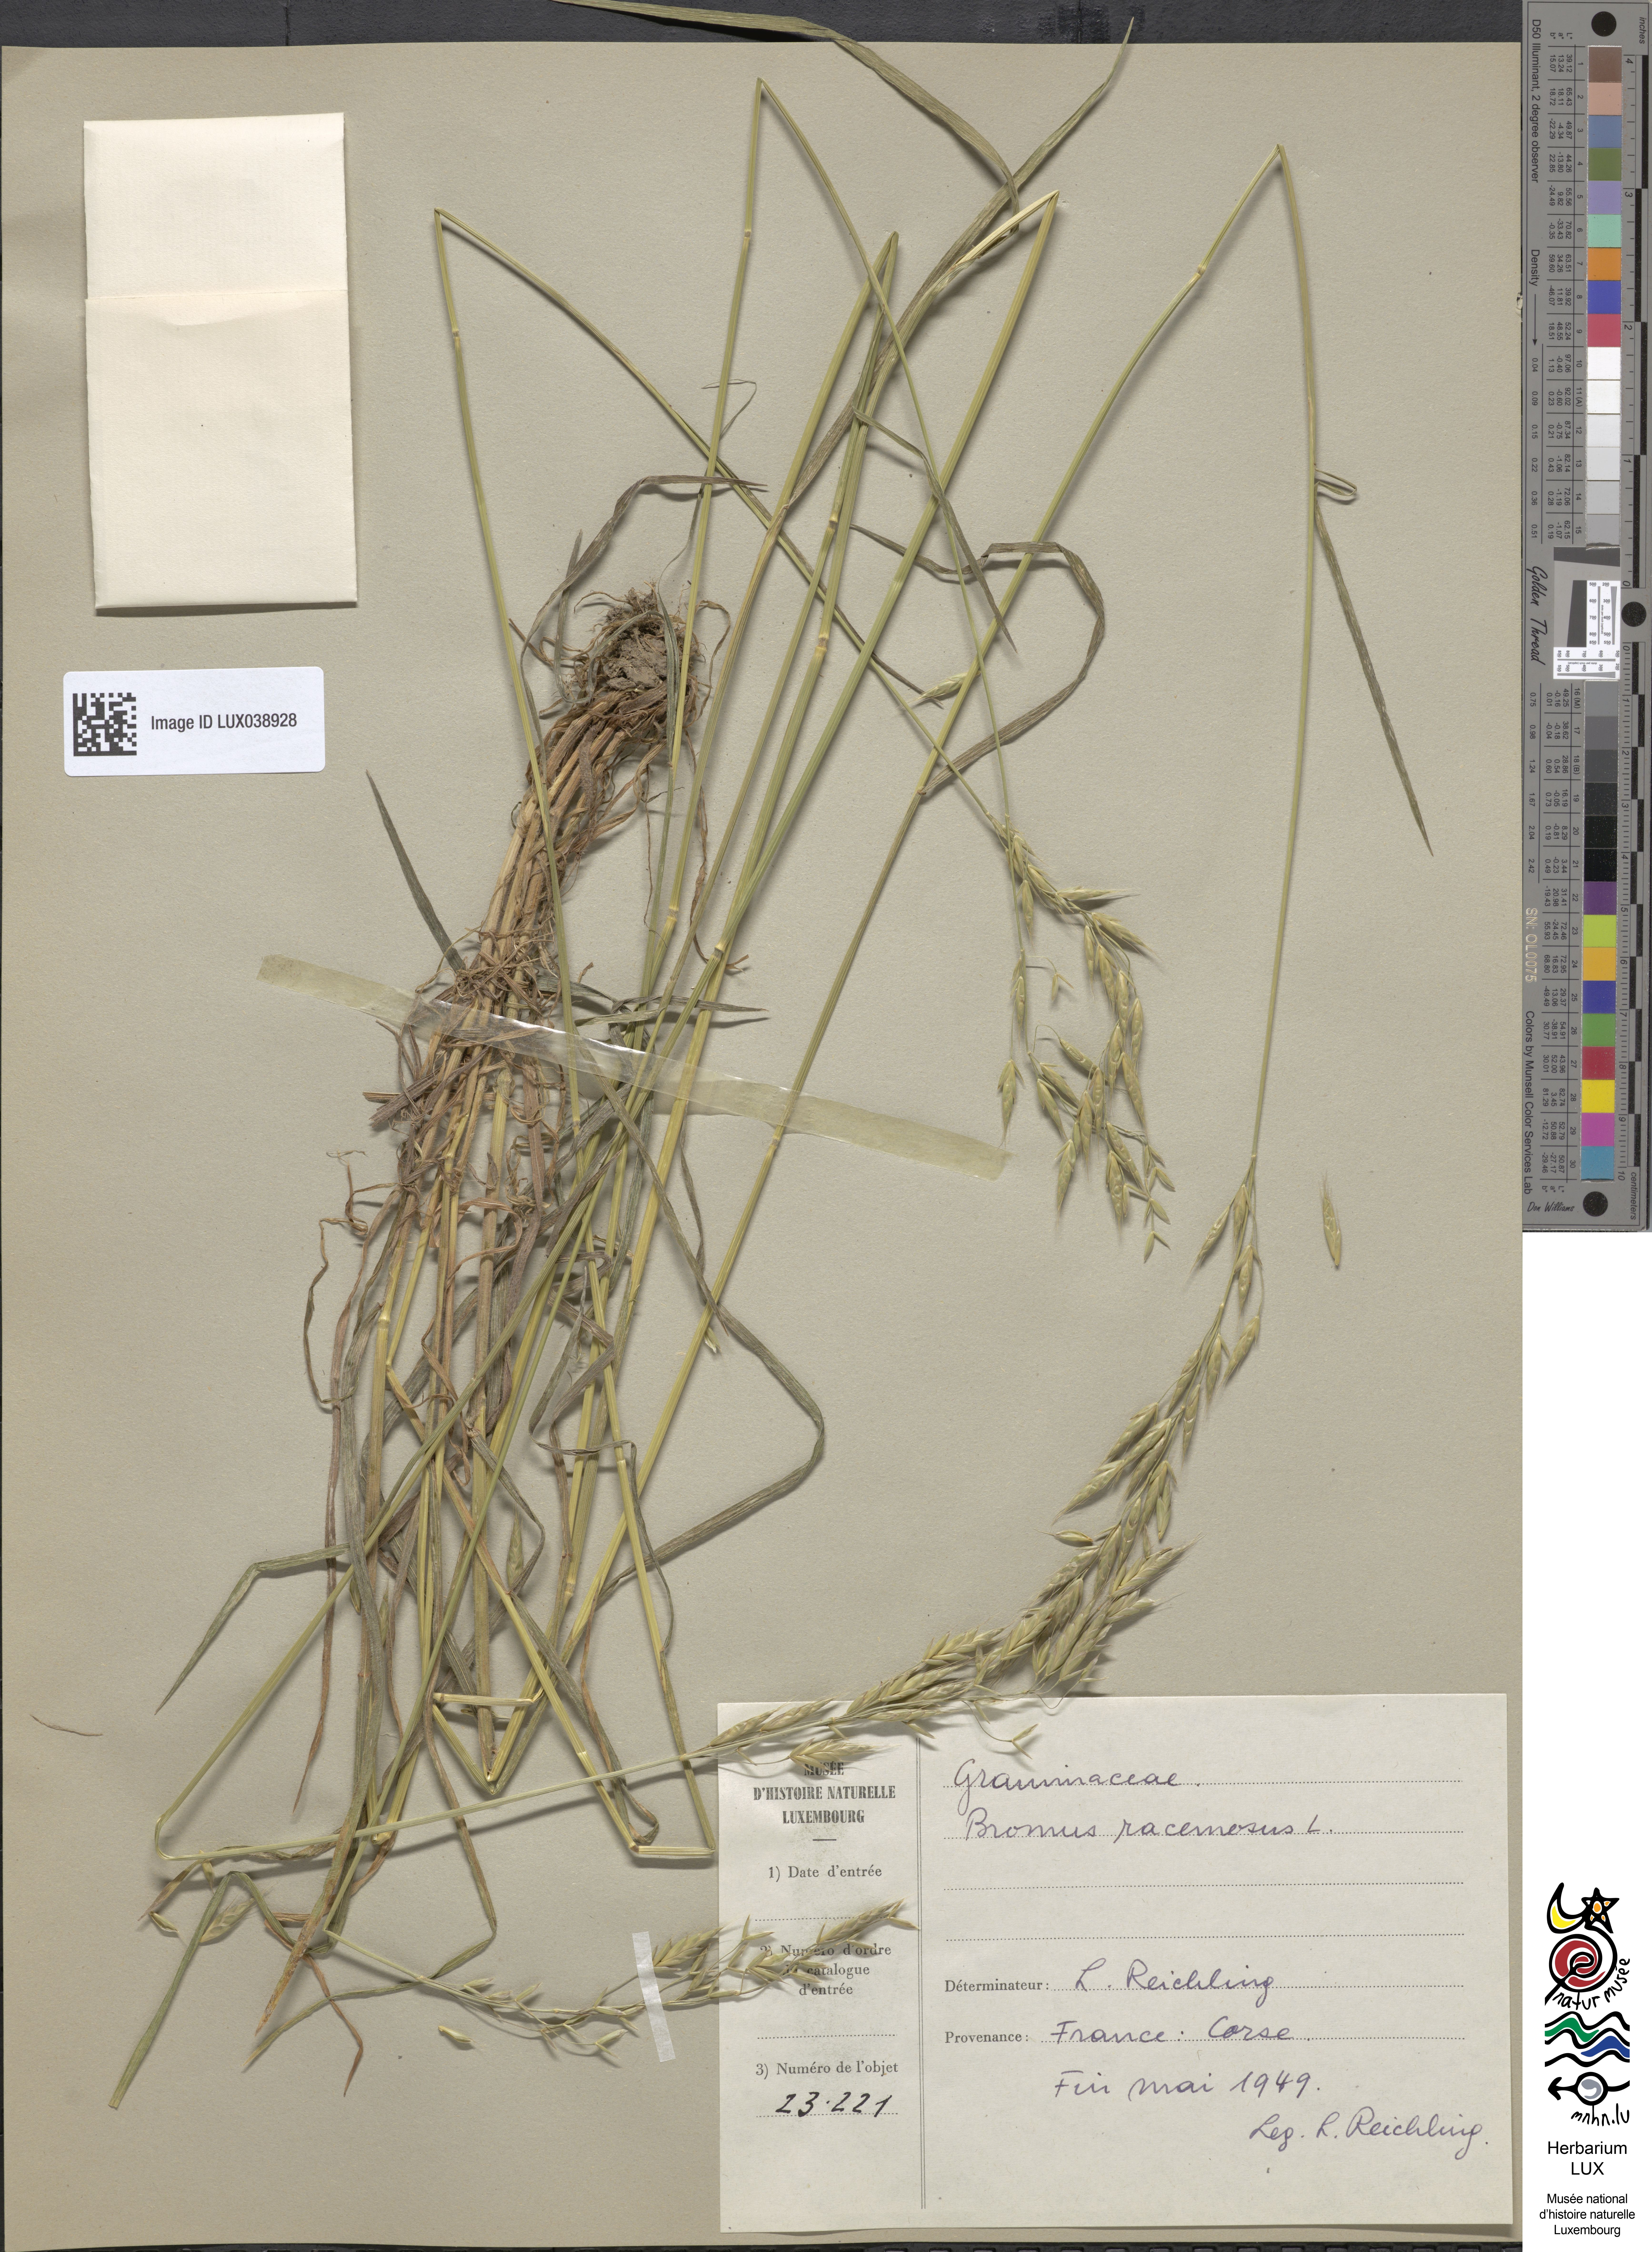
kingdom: Plantae
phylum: Tracheophyta
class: Liliopsida
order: Poales
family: Poaceae
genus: Bromus
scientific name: Bromus racemosus
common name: Bald brome
